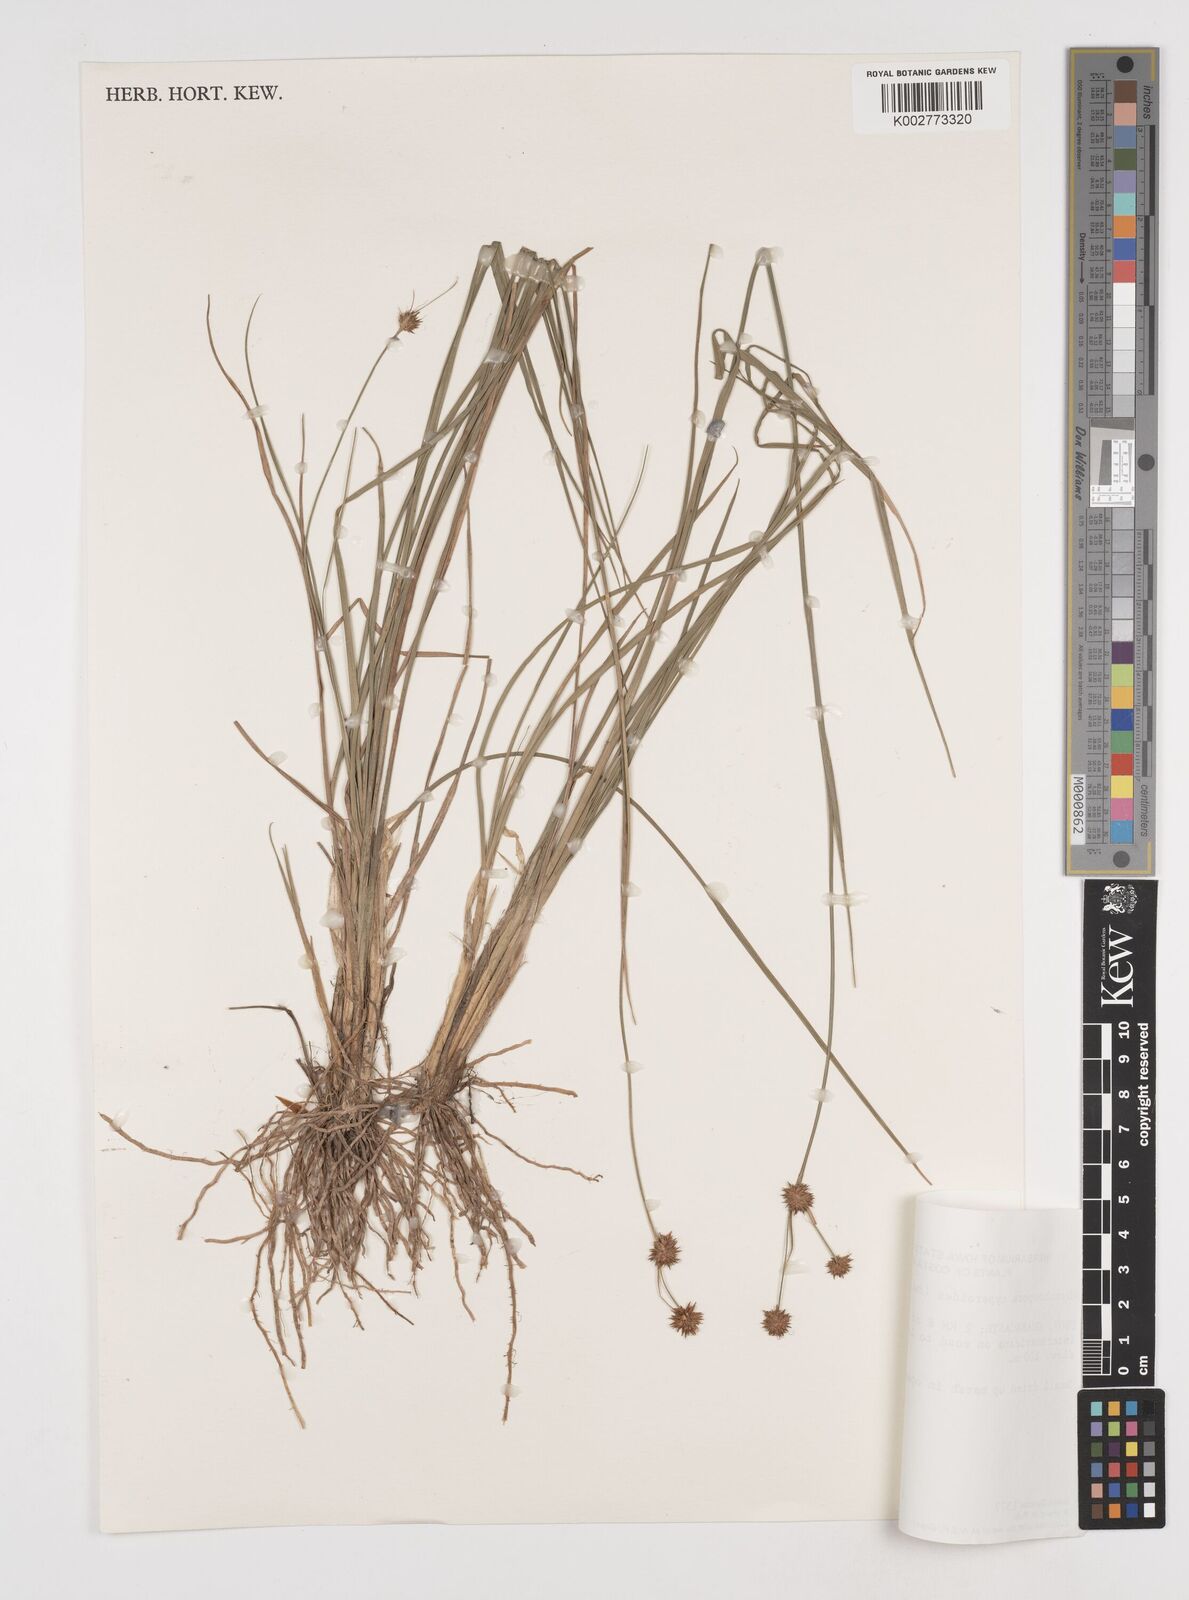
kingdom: Plantae
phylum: Tracheophyta
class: Liliopsida
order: Poales
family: Cyperaceae
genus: Rhynchospora
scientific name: Rhynchospora holoschoenoides
